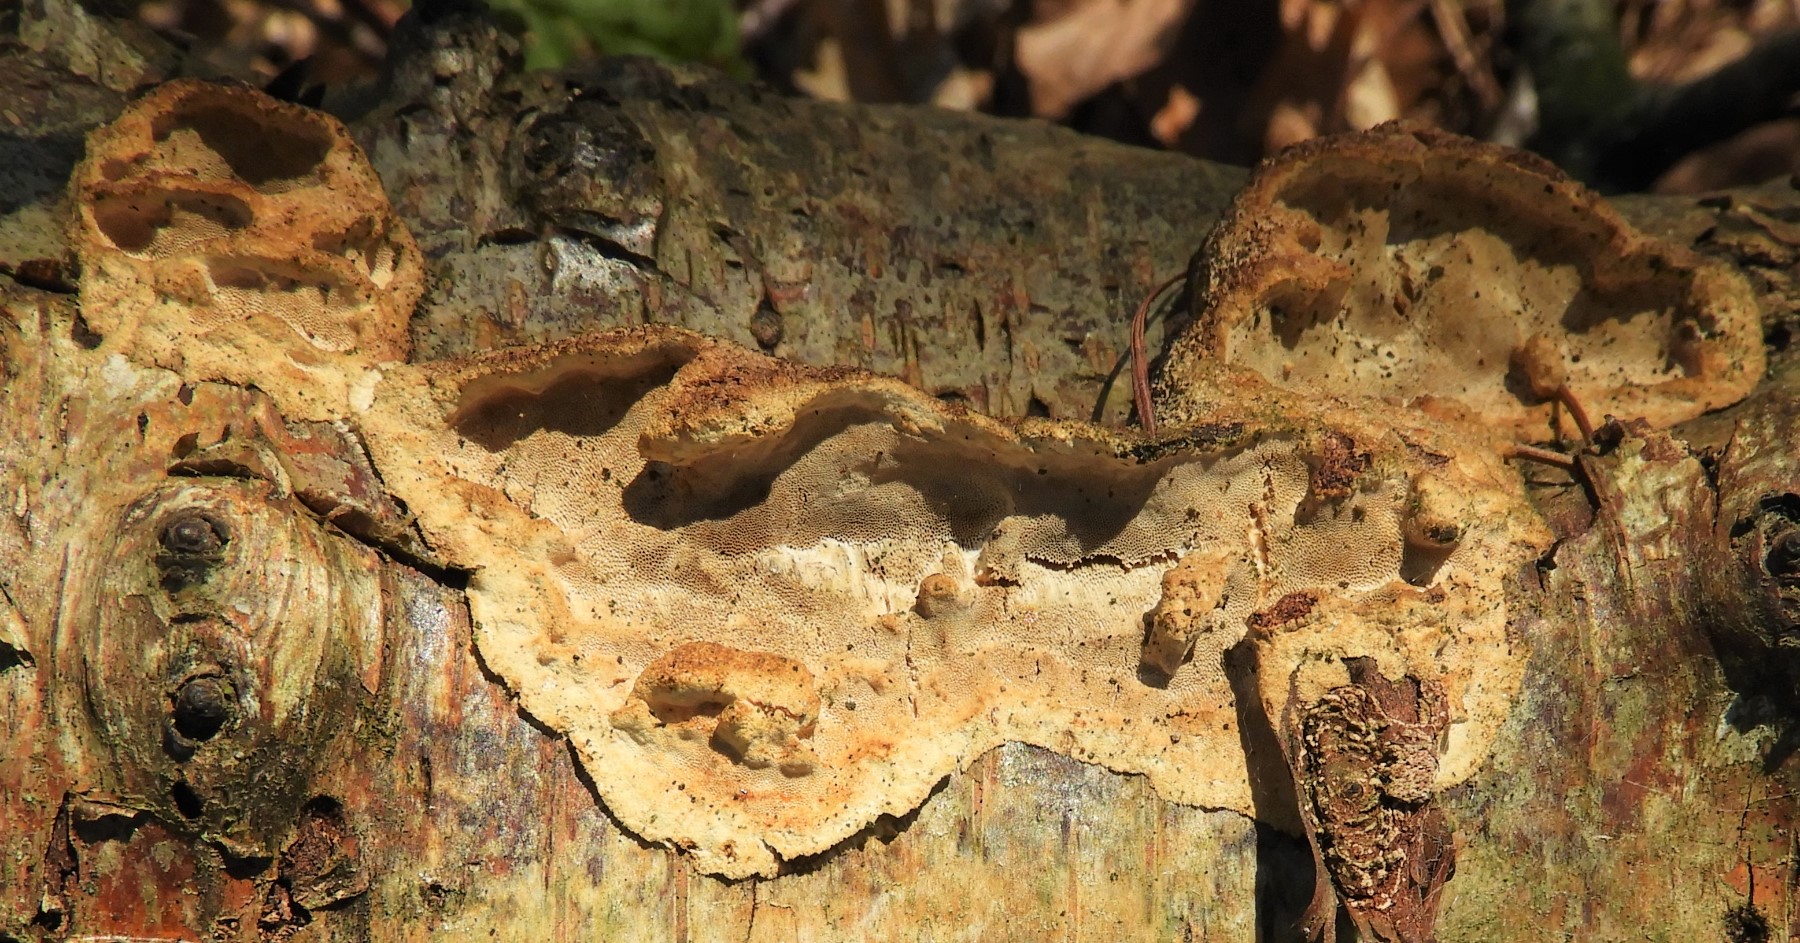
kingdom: Fungi
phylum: Basidiomycota
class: Agaricomycetes
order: Polyporales
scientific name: Polyporales
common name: poresvampordenen
